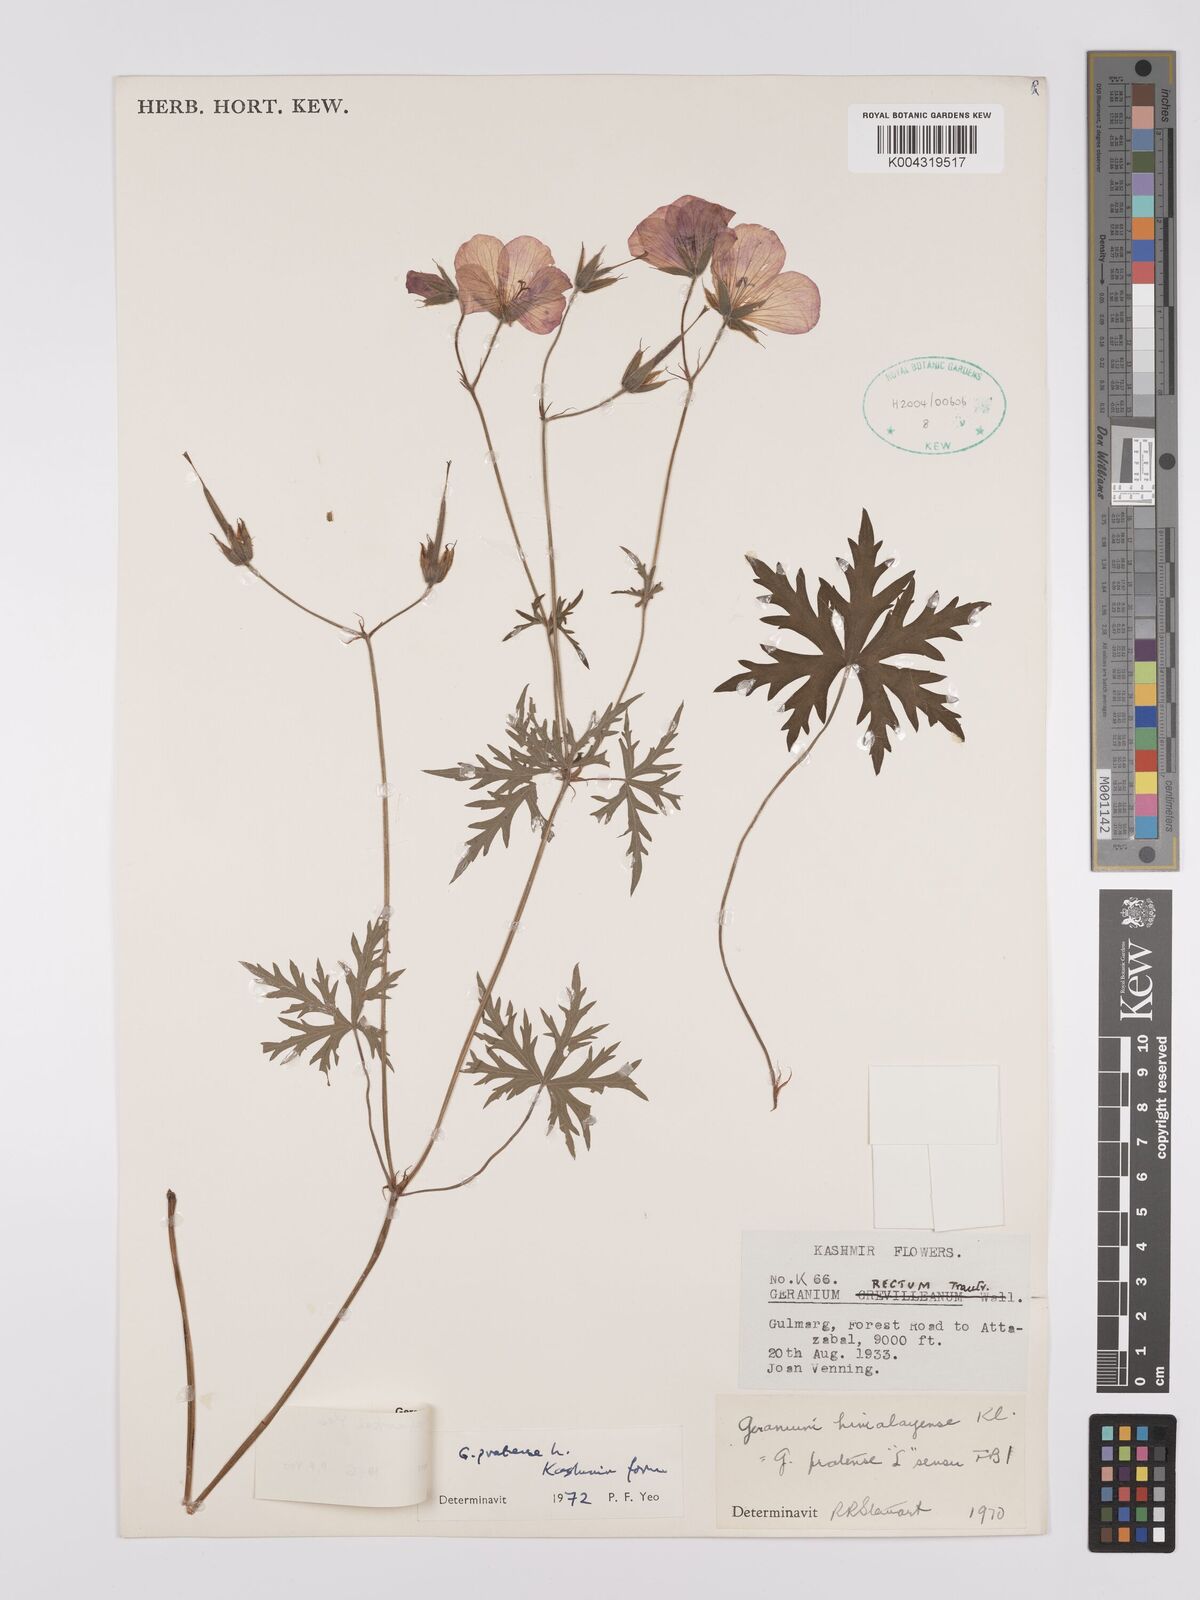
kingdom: Plantae
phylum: Tracheophyta
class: Magnoliopsida
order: Geraniales
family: Geraniaceae
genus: Geranium
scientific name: Geranium clarkei
